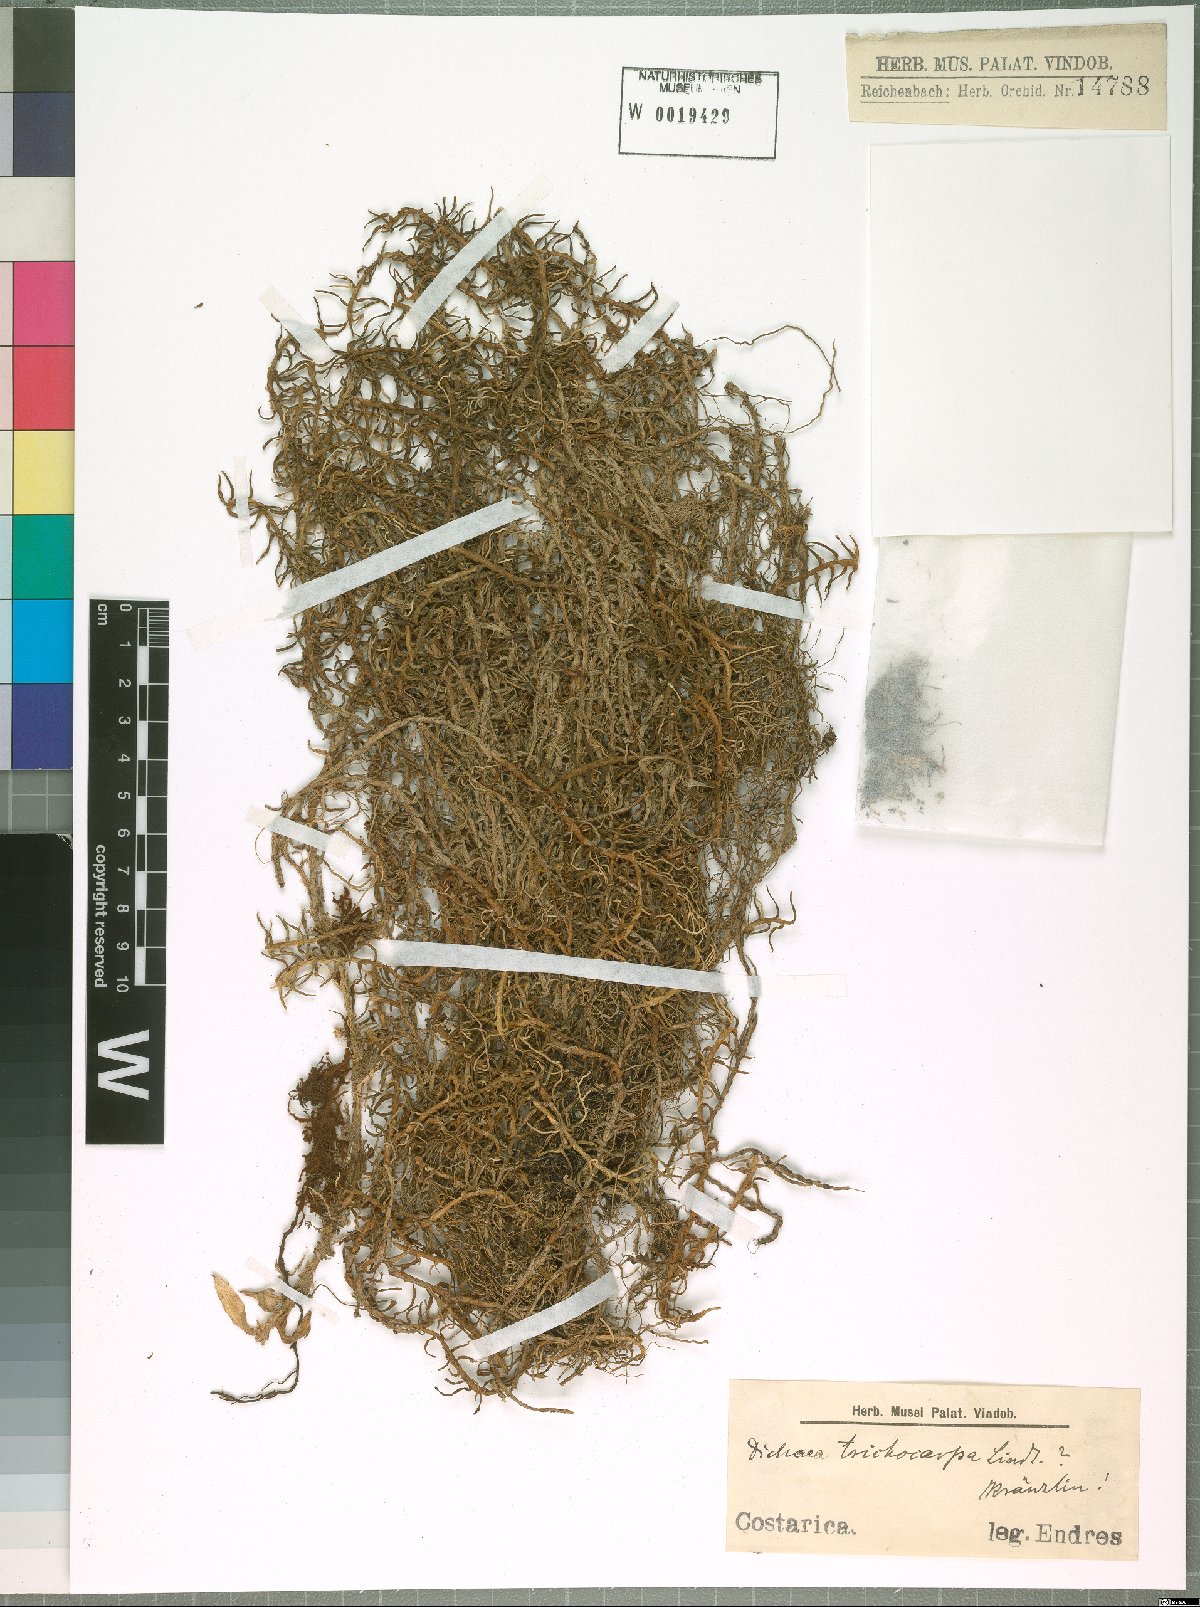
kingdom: Plantae
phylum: Tracheophyta
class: Liliopsida
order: Asparagales
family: Orchidaceae
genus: Dichaea
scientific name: Dichaea trichocarpa
